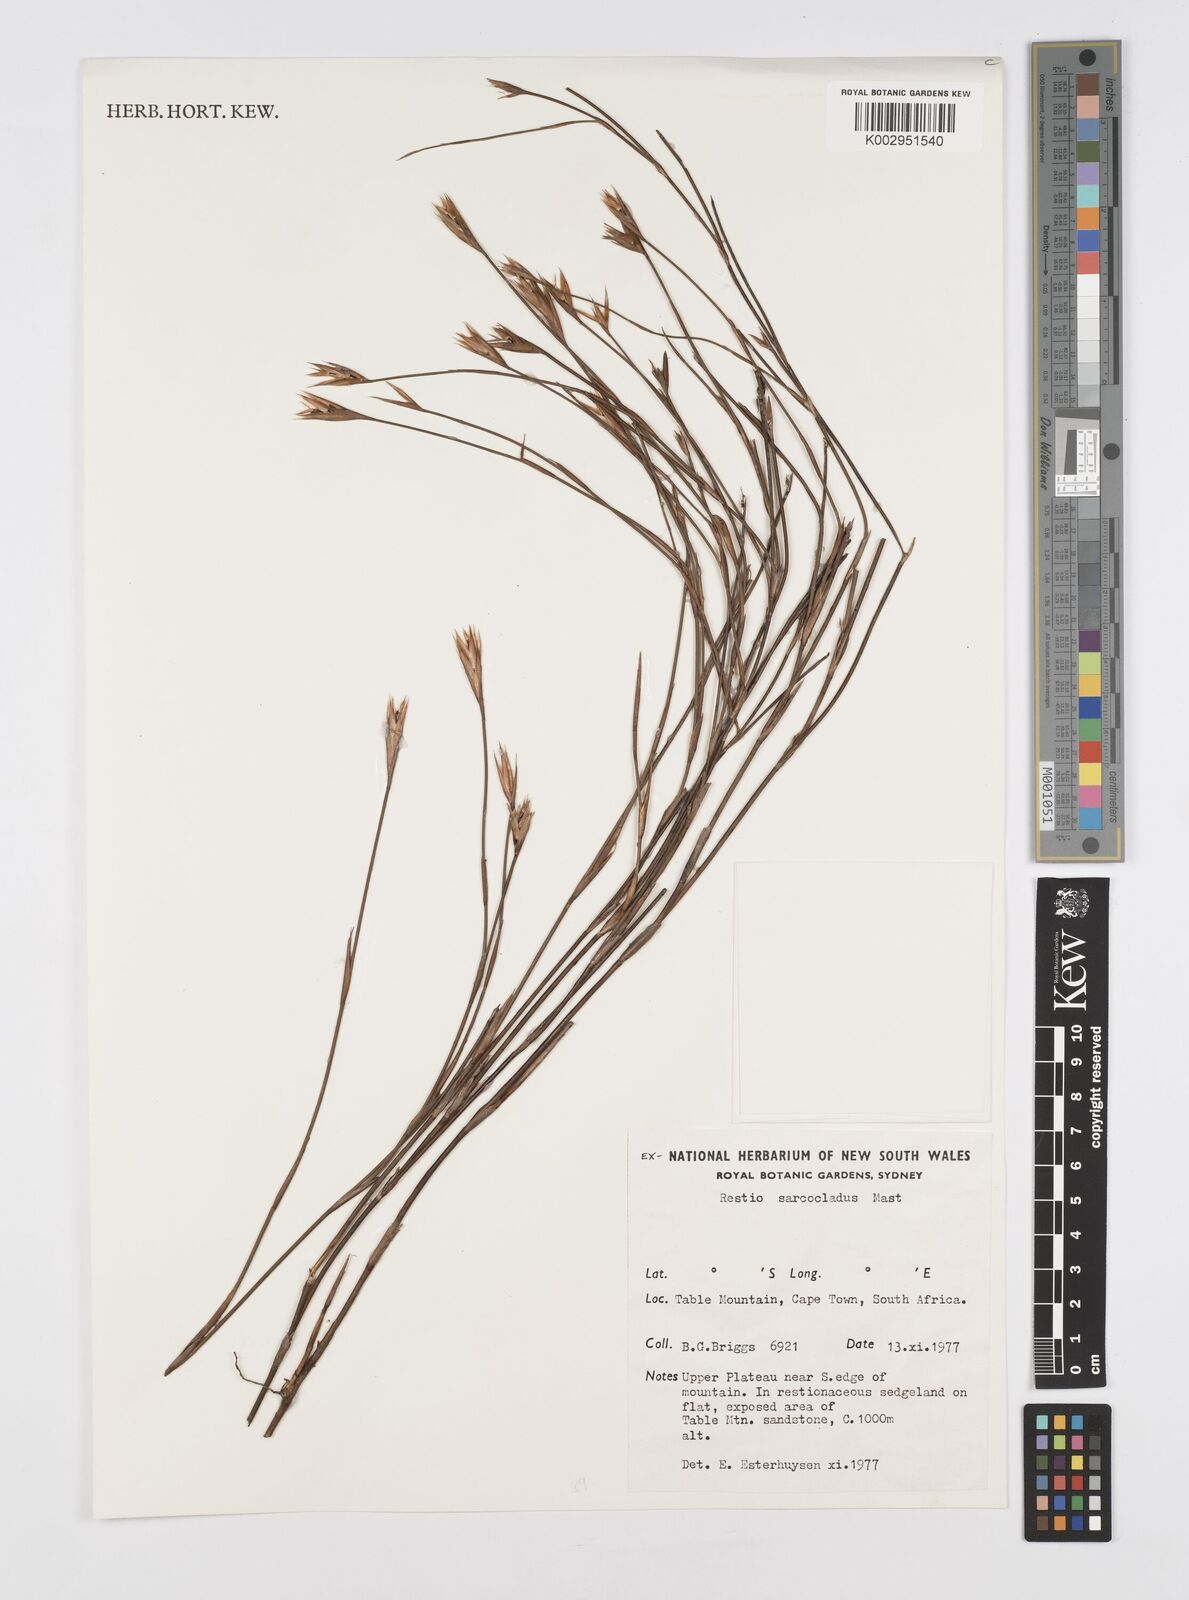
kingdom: Plantae
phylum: Tracheophyta
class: Liliopsida
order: Poales
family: Restionaceae
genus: Restio
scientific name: Restio saroclados
